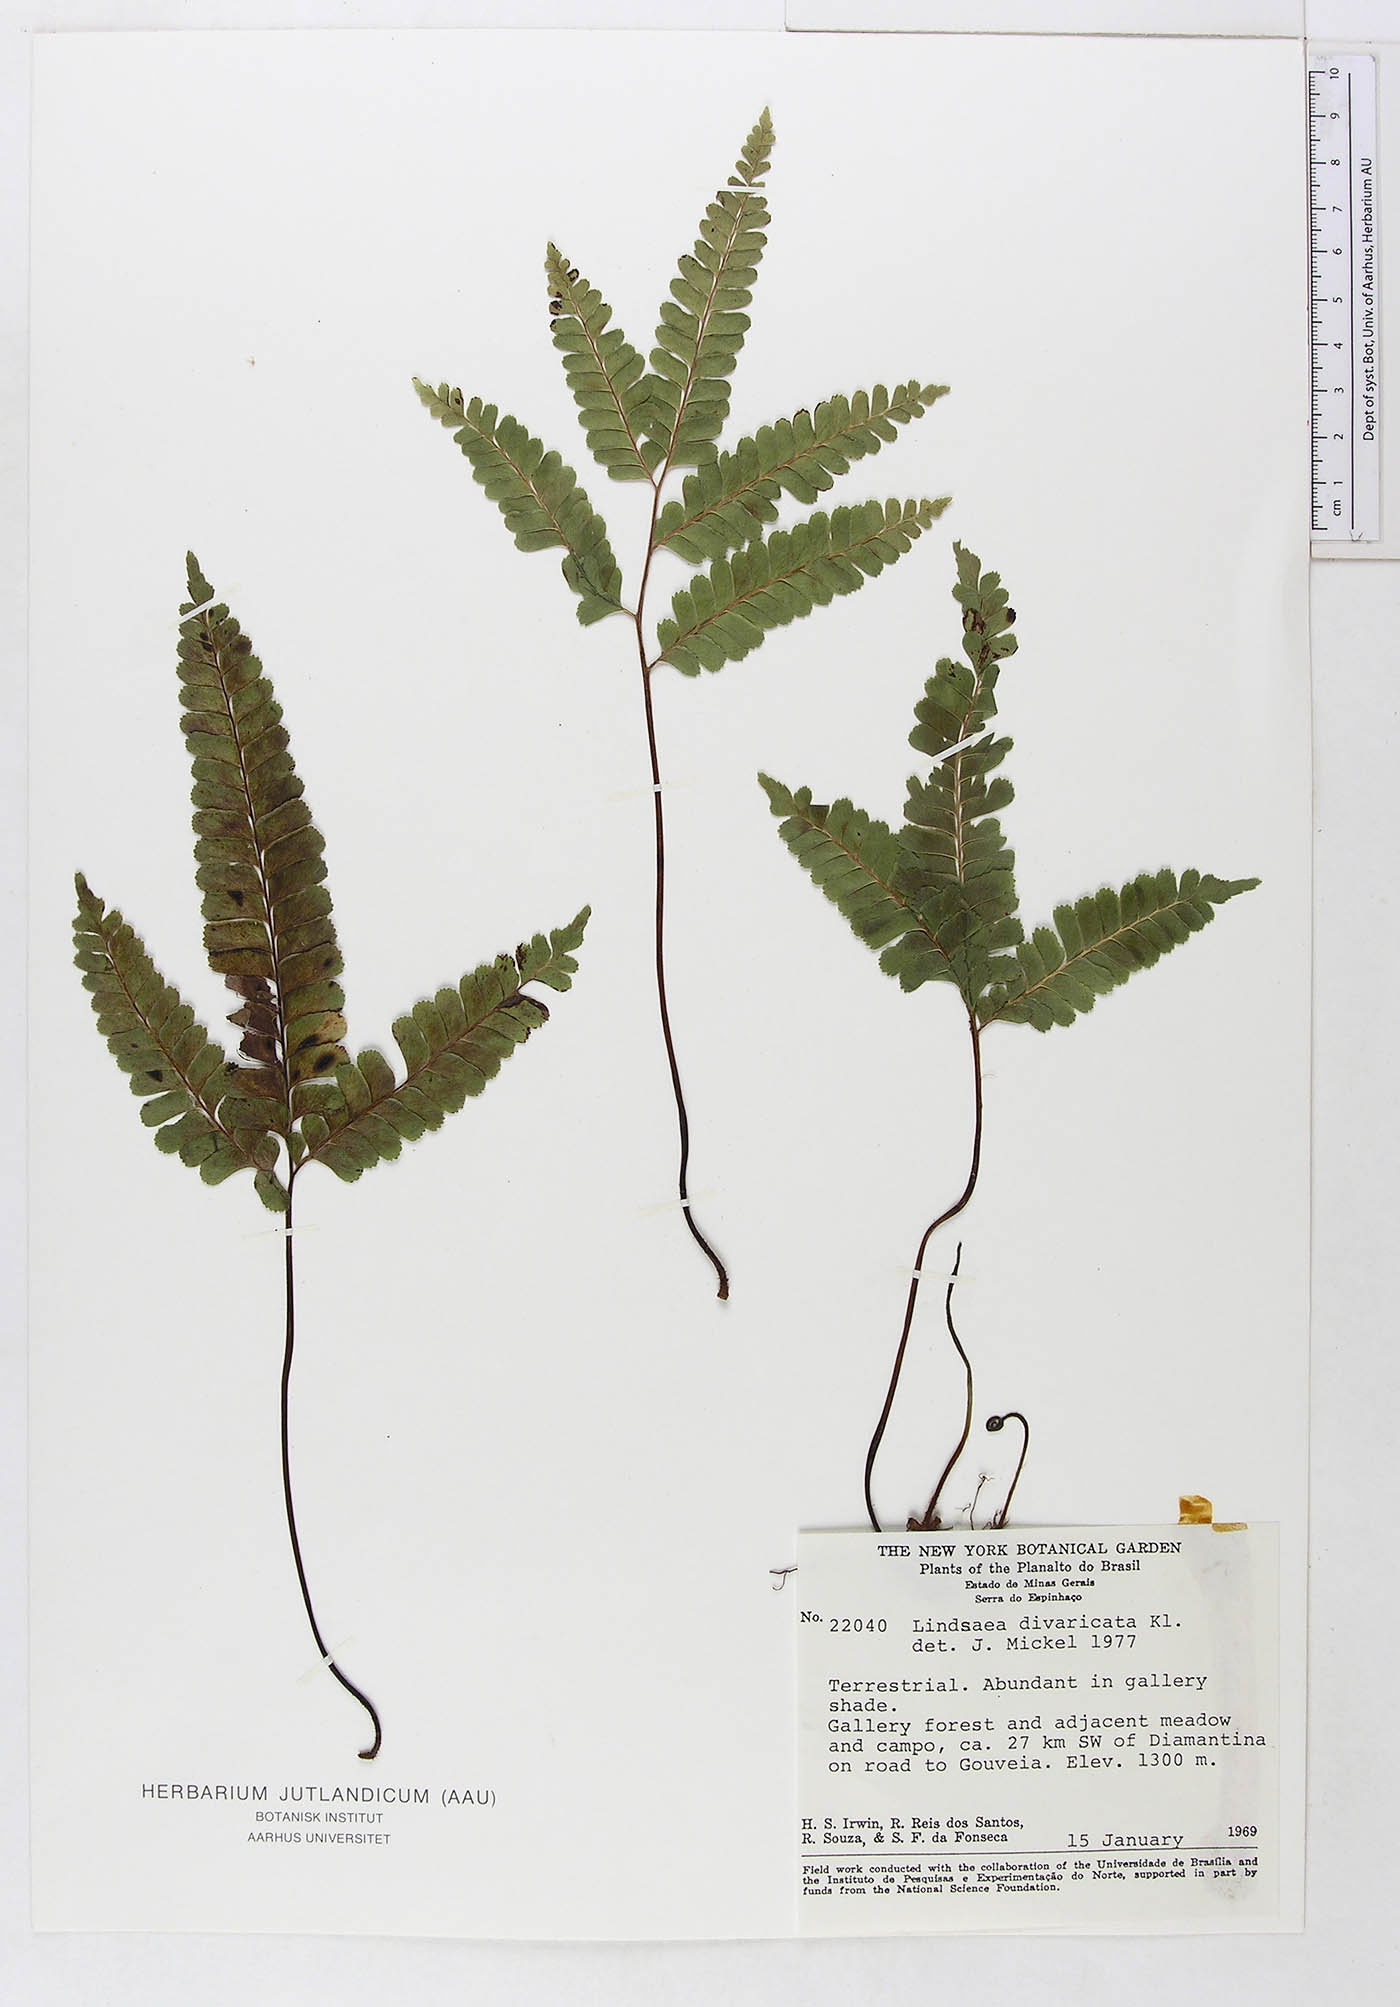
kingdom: Plantae
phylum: Tracheophyta
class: Polypodiopsida
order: Polypodiales
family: Lindsaeaceae
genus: Lindsaea
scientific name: Lindsaea divaricata
